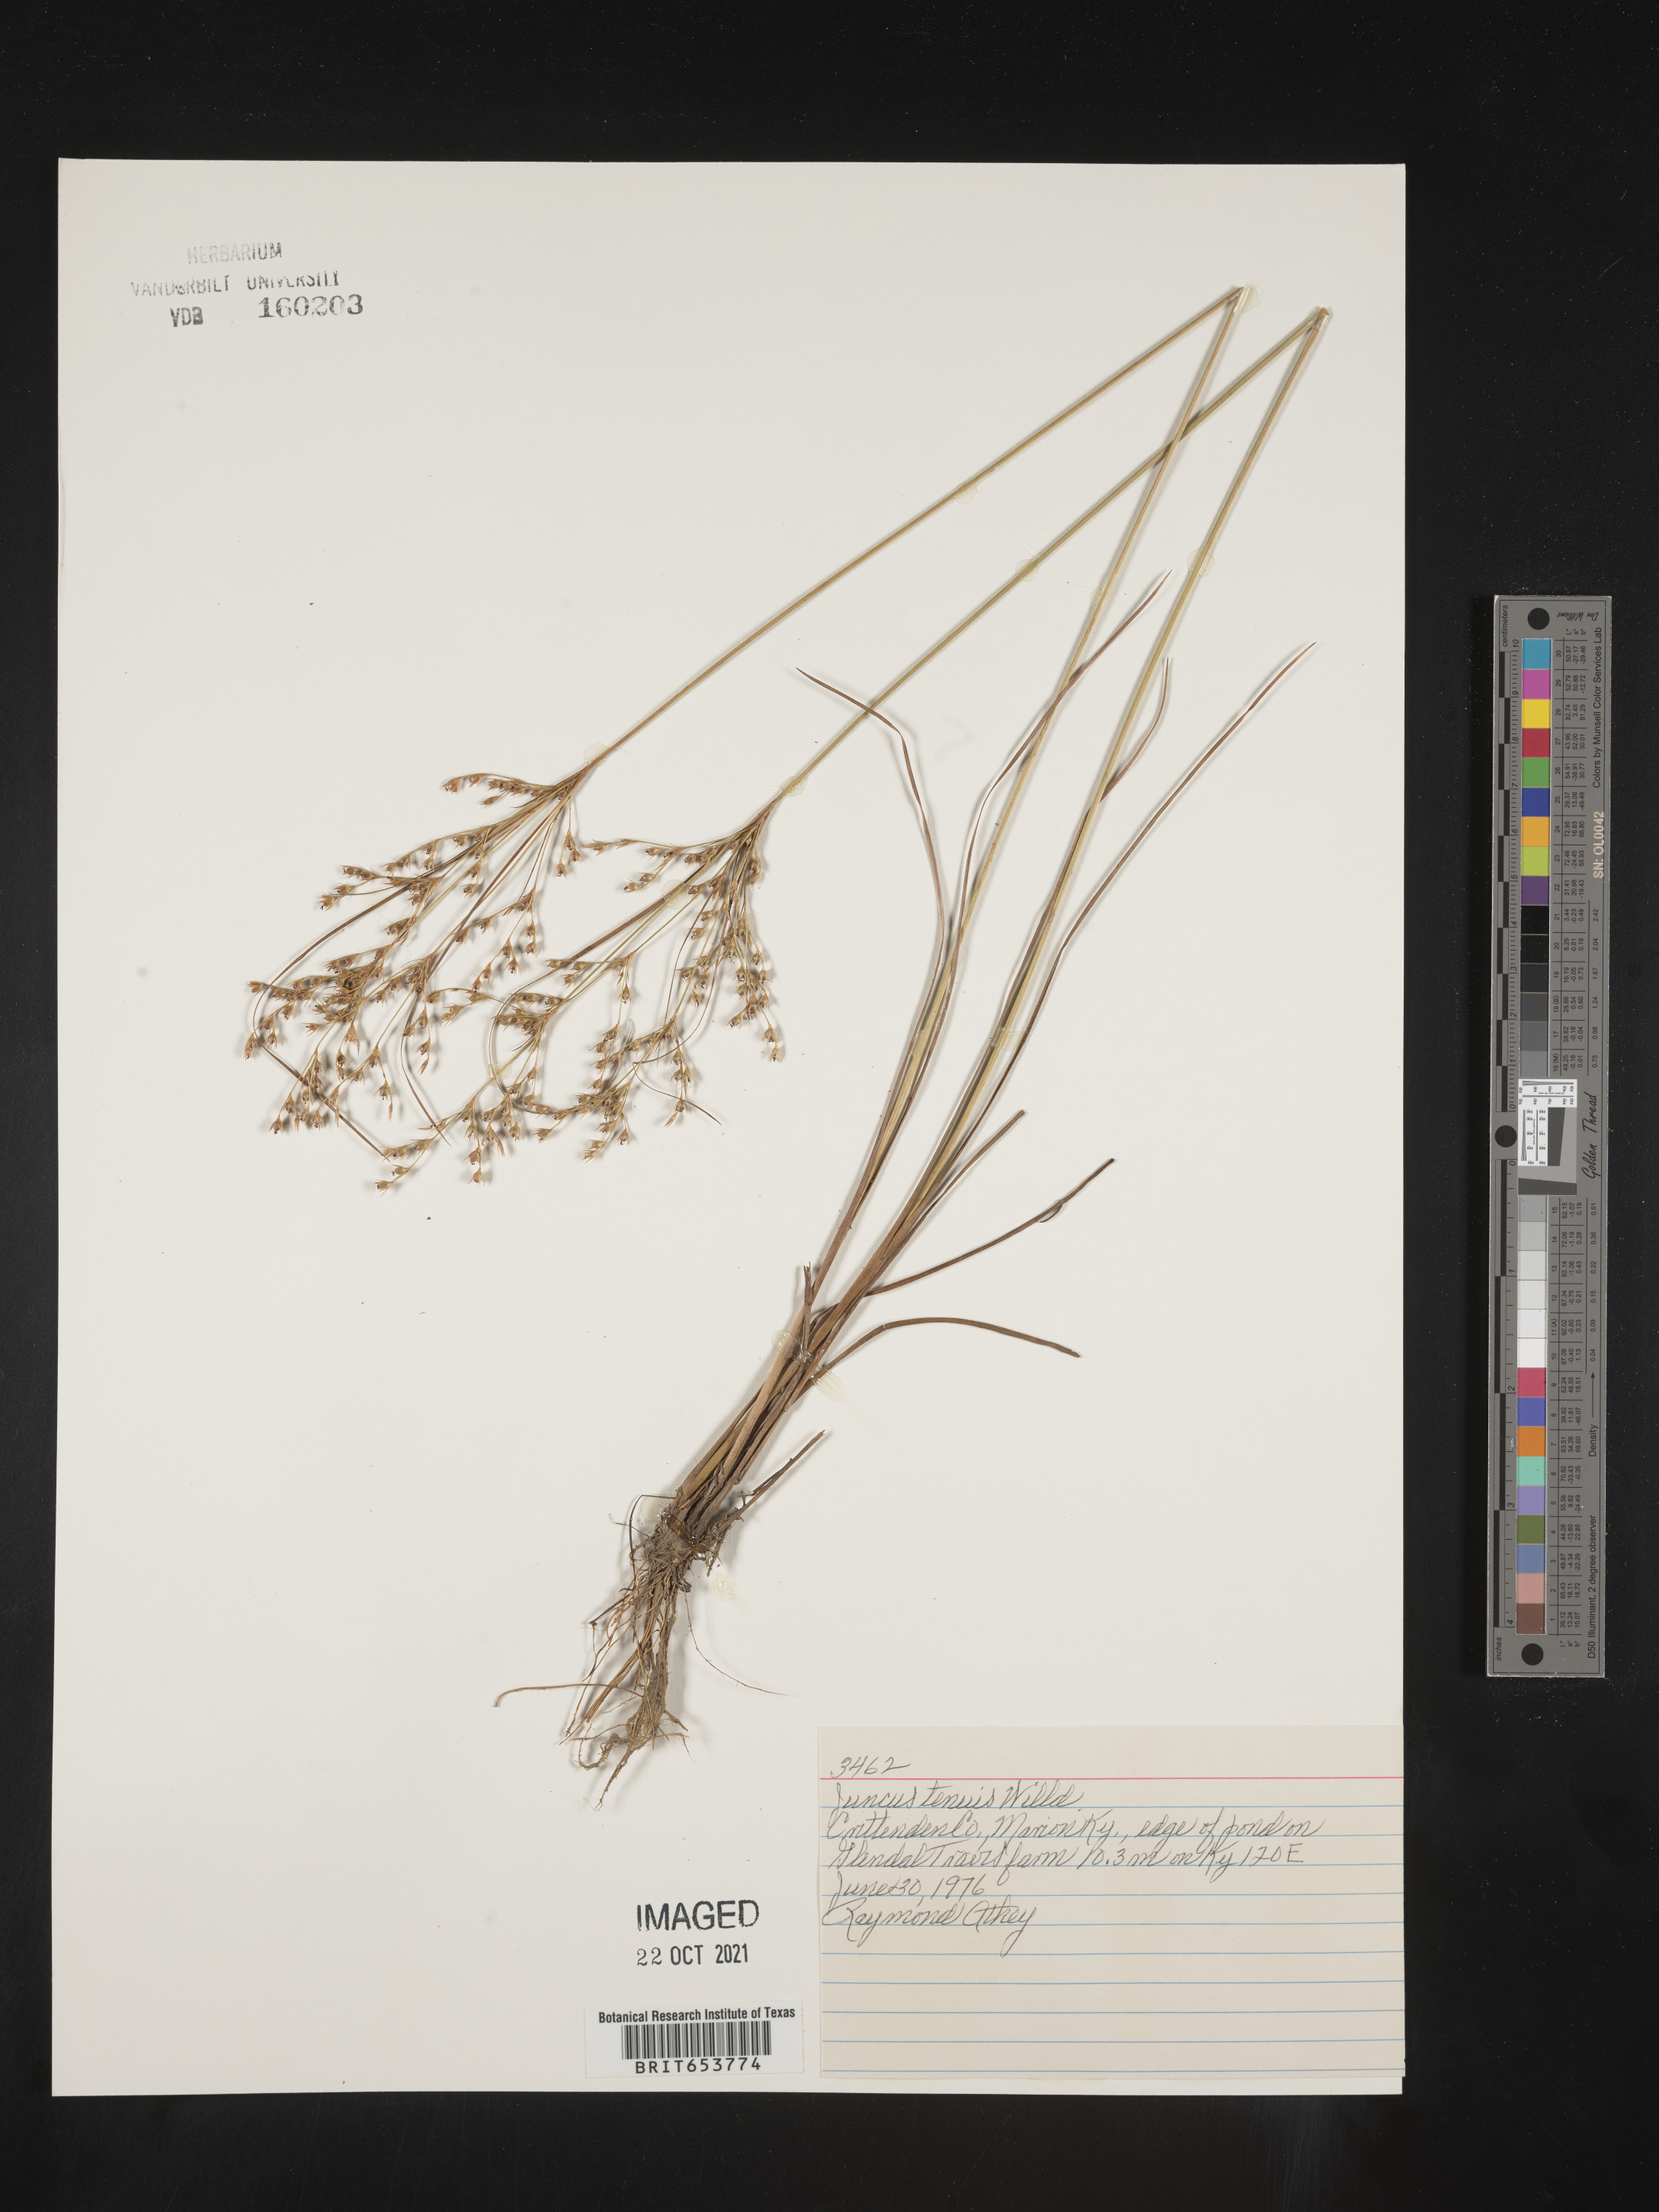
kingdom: Plantae
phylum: Tracheophyta
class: Liliopsida
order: Poales
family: Juncaceae
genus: Juncus
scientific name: Juncus tenuis
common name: Slender rush
